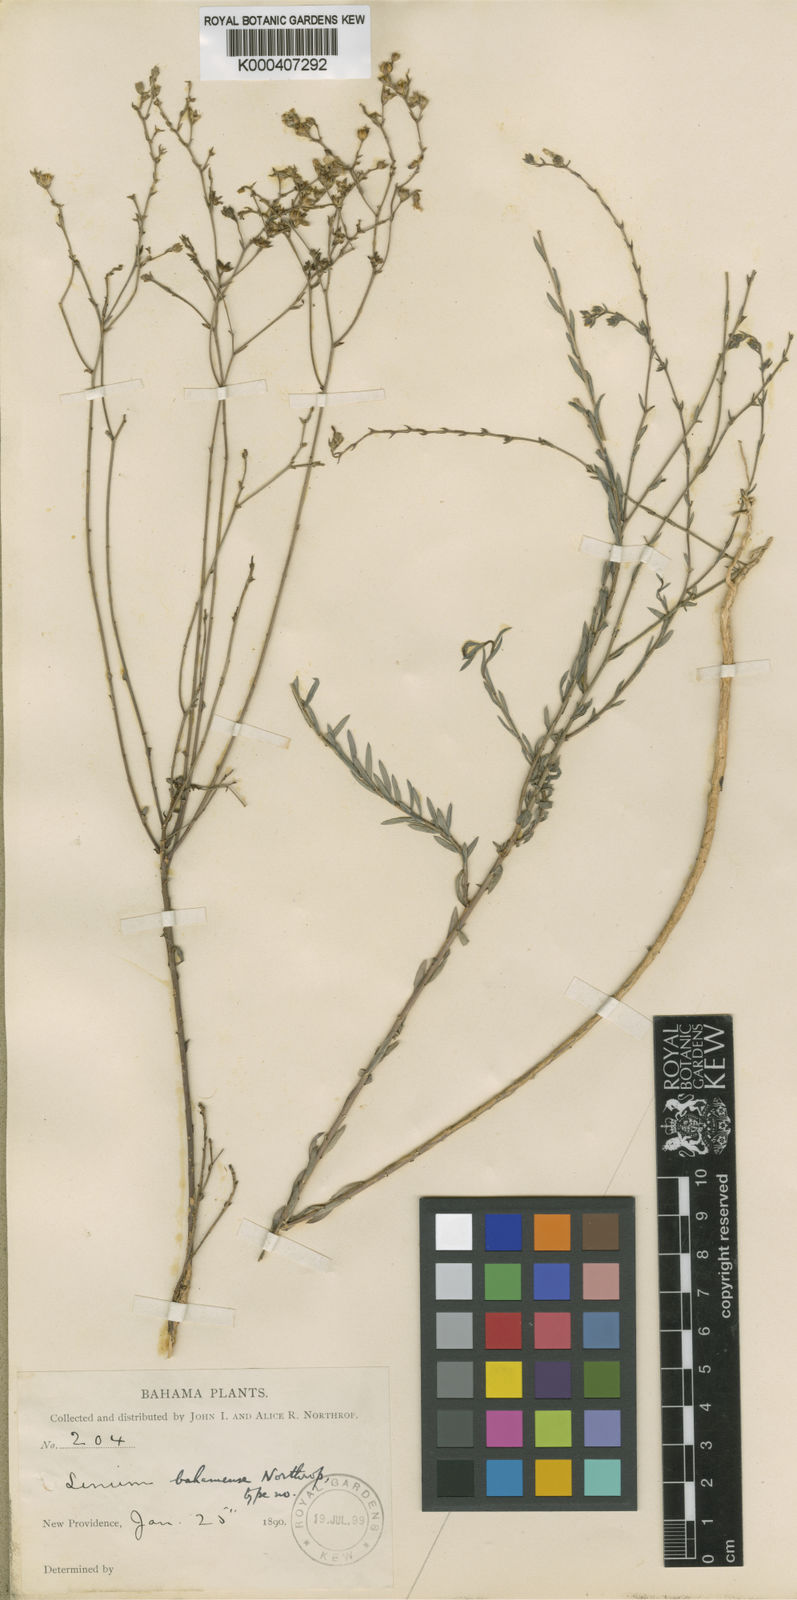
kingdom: Plantae
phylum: Tracheophyta
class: Magnoliopsida
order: Malpighiales
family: Linaceae
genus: Linum
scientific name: Linum bahamense
